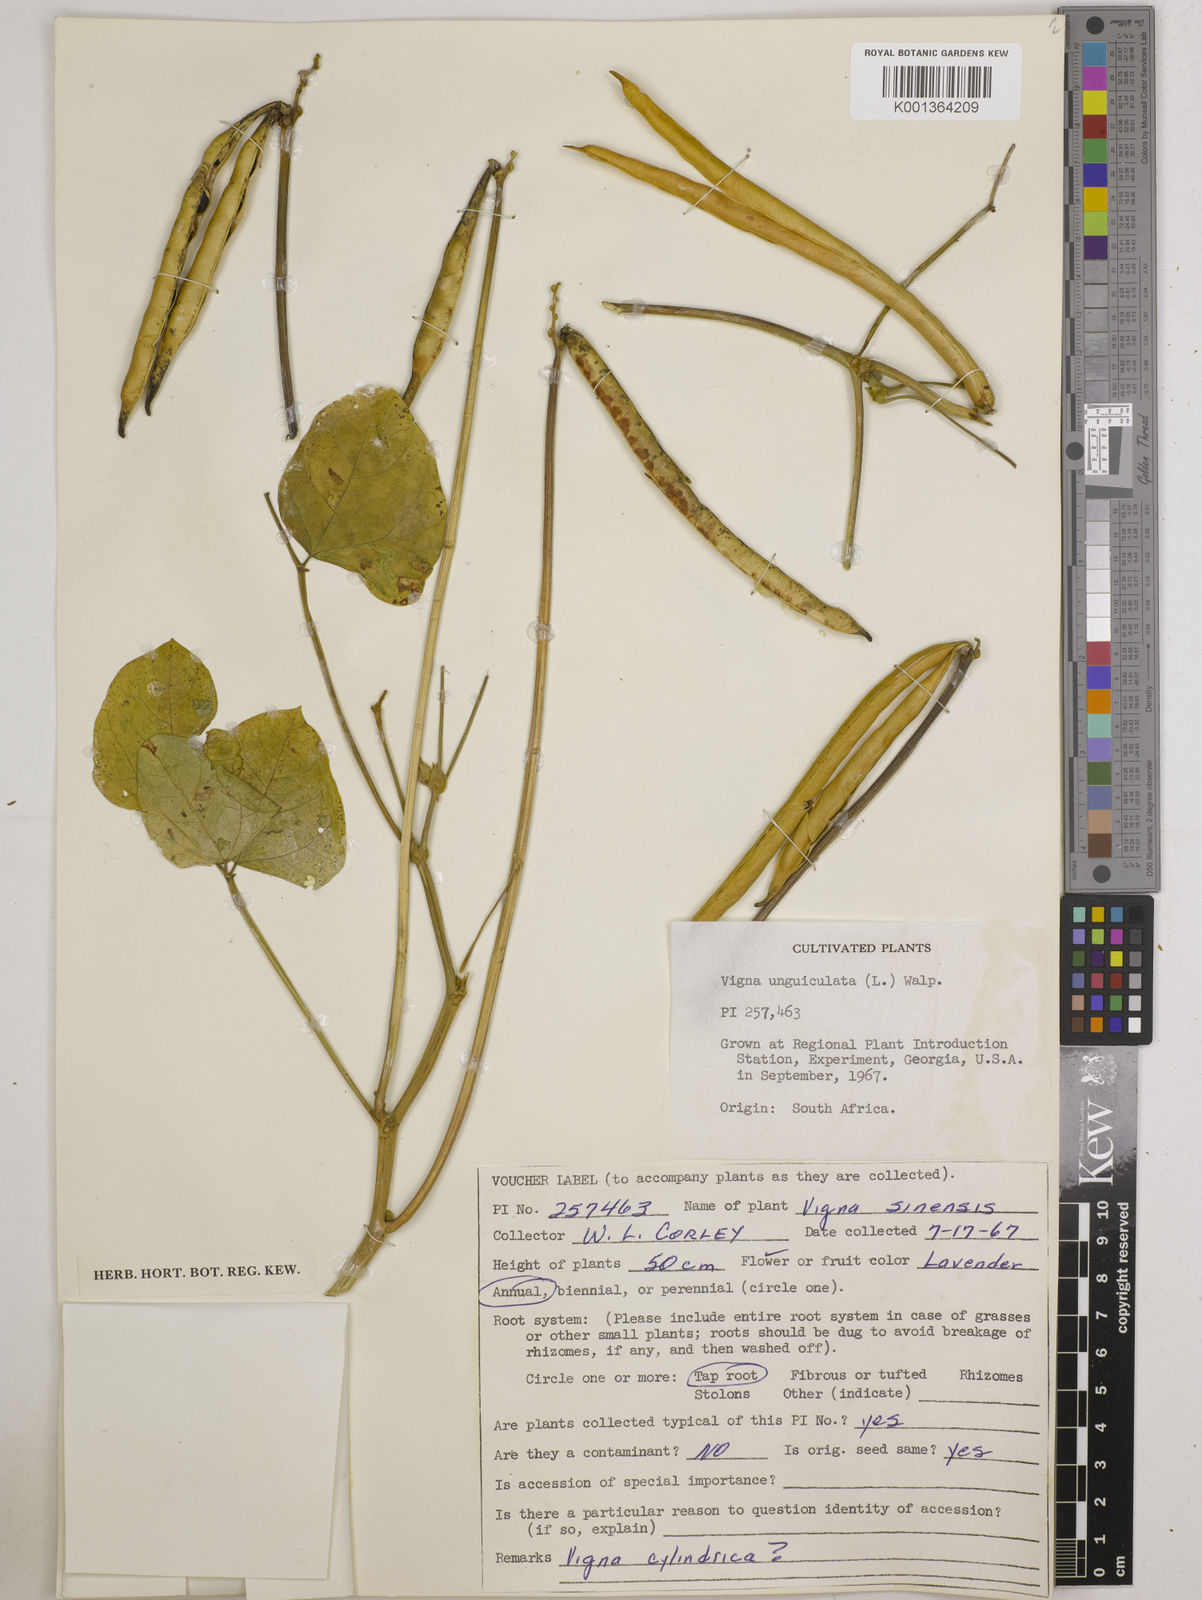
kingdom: Plantae
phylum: Tracheophyta
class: Magnoliopsida
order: Fabales
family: Fabaceae
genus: Vigna
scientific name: Vigna
